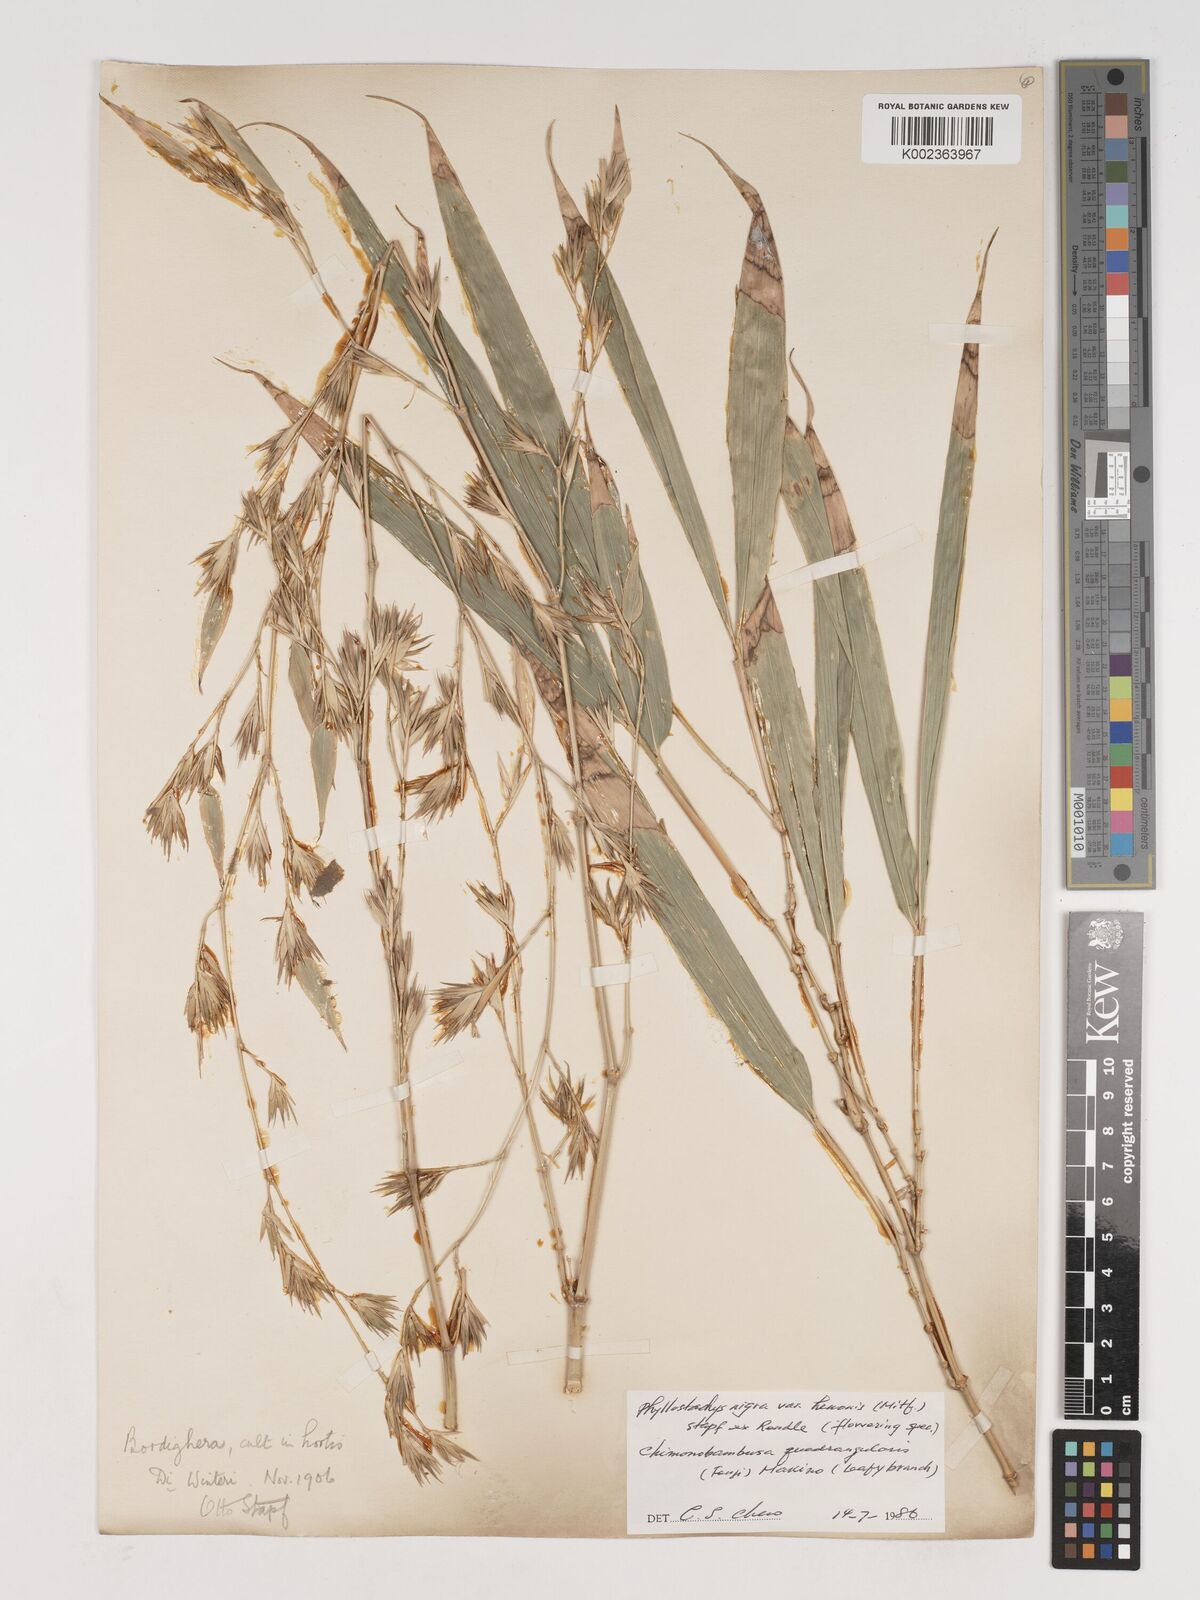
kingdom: Plantae
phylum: Tracheophyta
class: Liliopsida
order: Poales
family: Poaceae
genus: Phyllostachys
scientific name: Phyllostachys nigra
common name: Black bamboo
